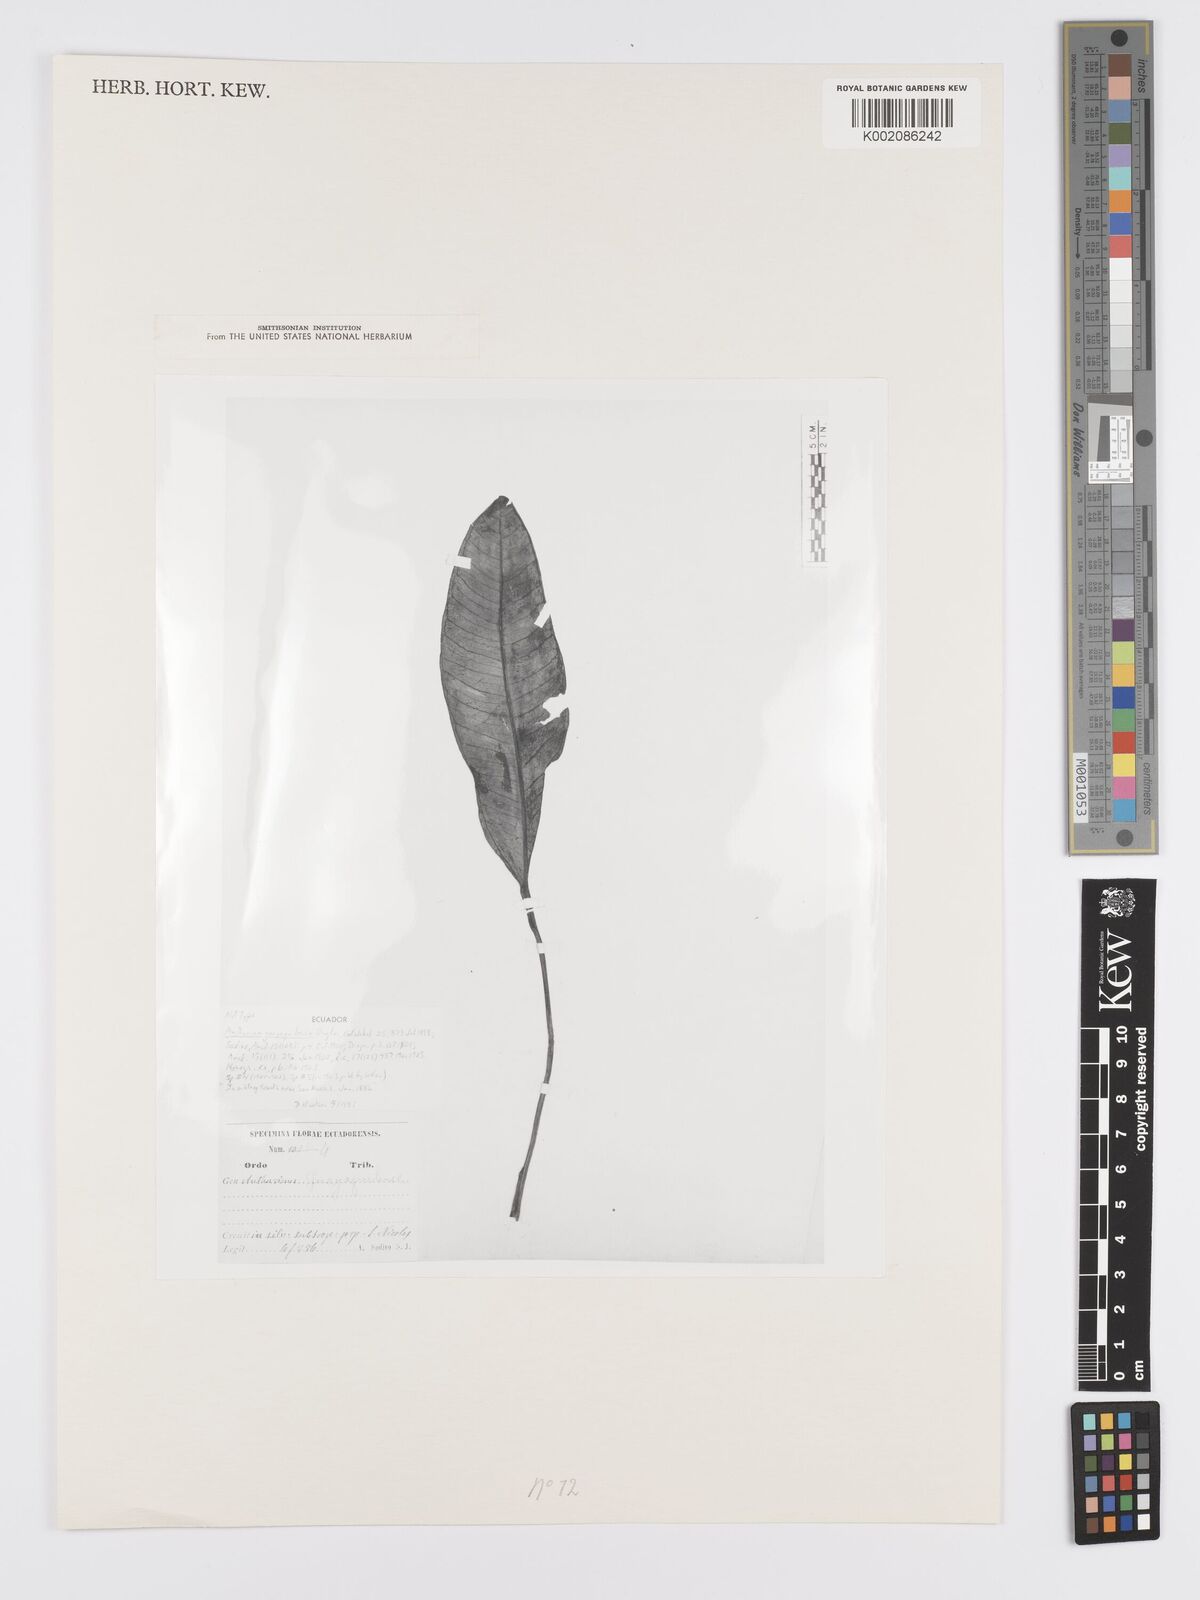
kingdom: Plantae
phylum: Tracheophyta
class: Liliopsida
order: Alismatales
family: Araceae
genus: Anthurium
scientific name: Anthurium guayaquilense
